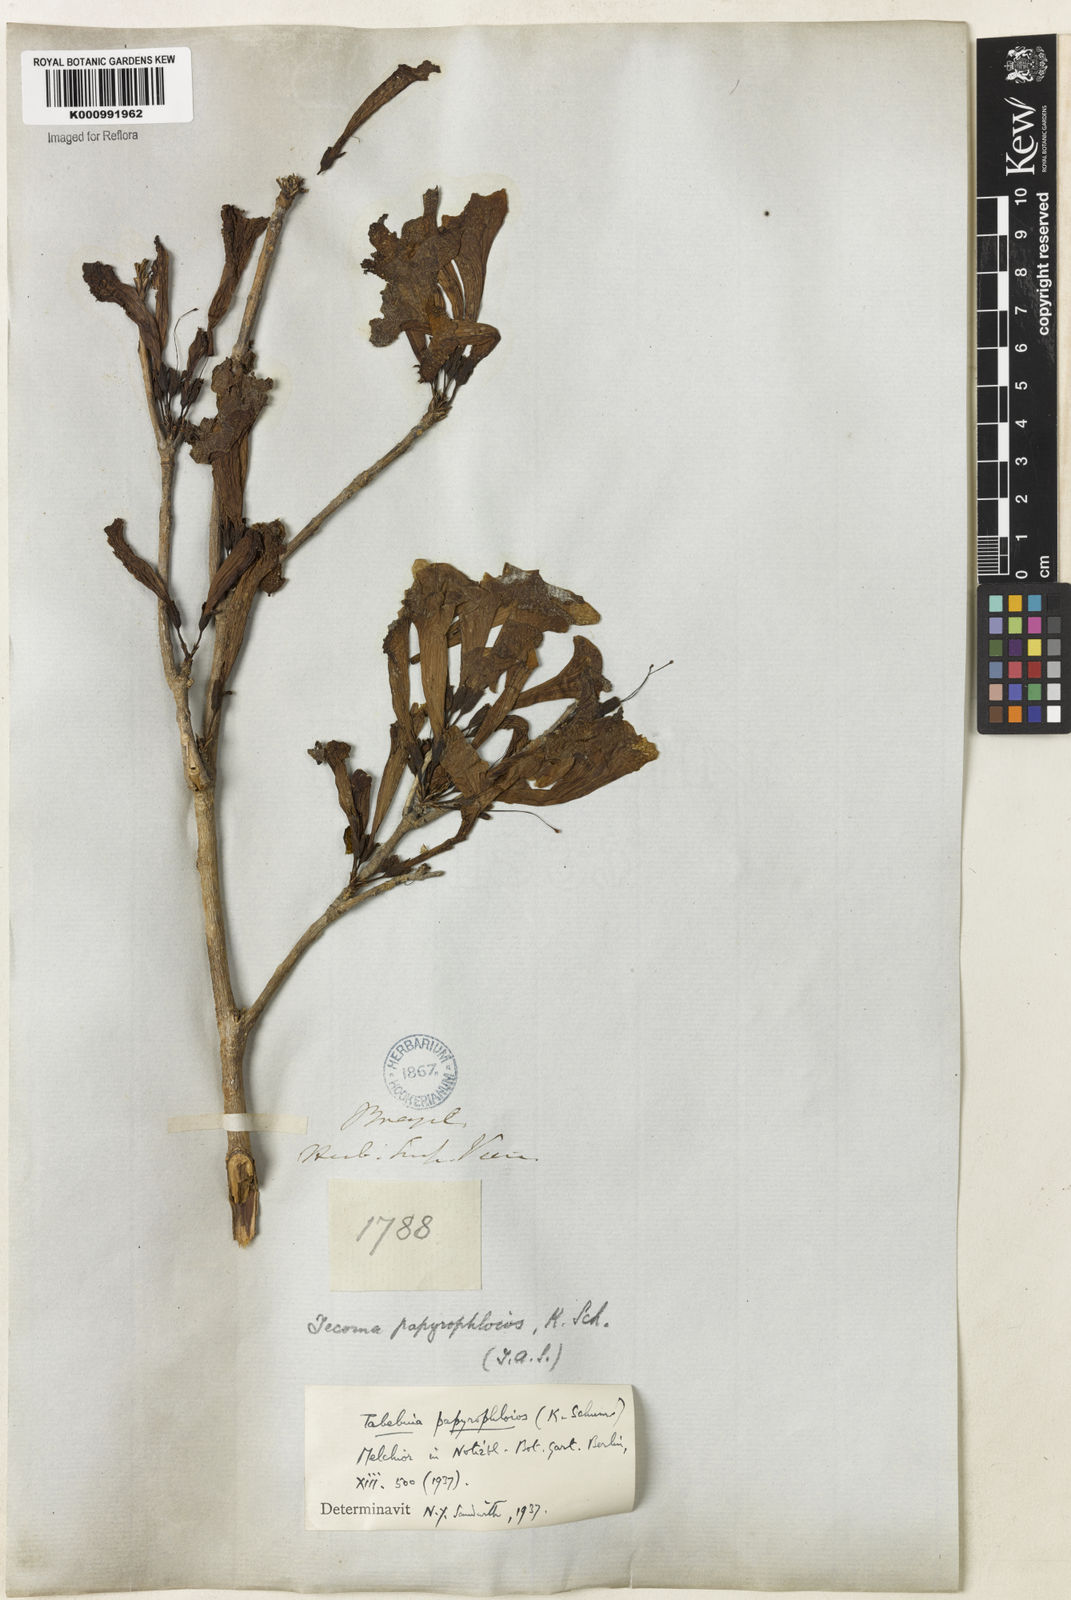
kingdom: Plantae
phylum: Tracheophyta
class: Magnoliopsida
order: Lamiales
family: Bignoniaceae
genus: Tabebuia
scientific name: Tabebuia roseoalba
